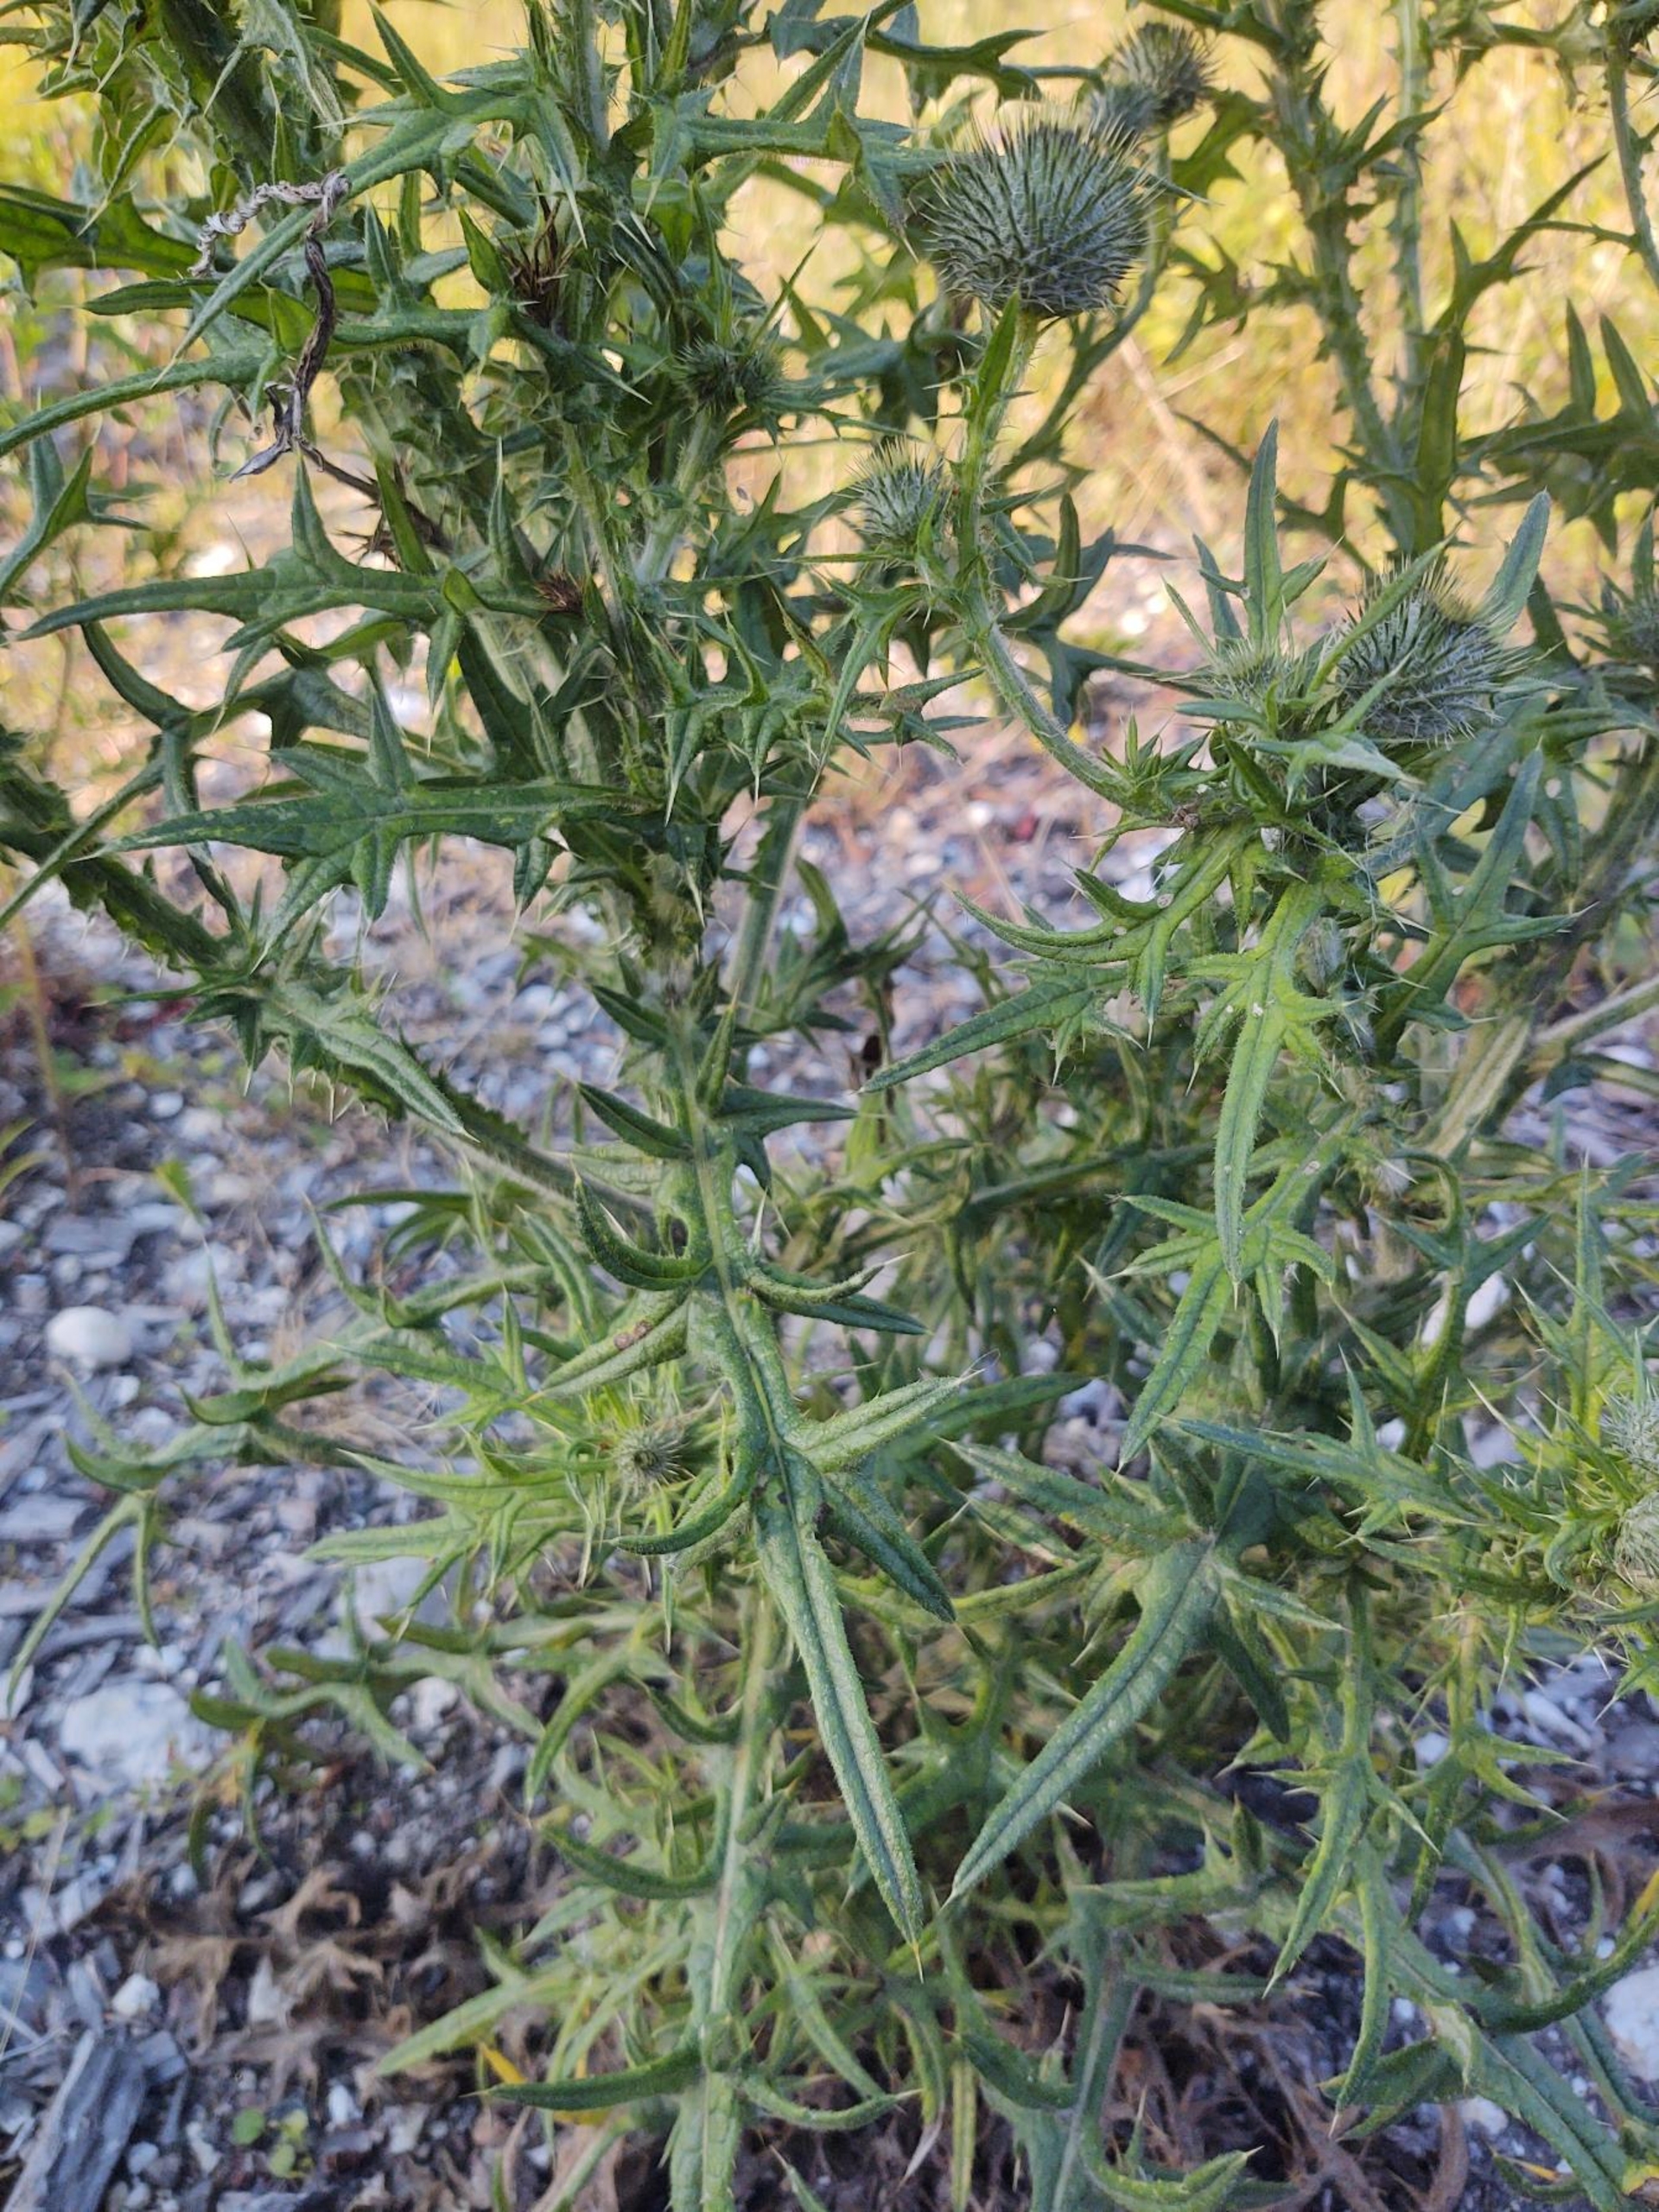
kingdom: Plantae
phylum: Tracheophyta
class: Magnoliopsida
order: Asterales
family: Asteraceae
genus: Cirsium
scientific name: Cirsium vulgare
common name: Horse-tidsel
